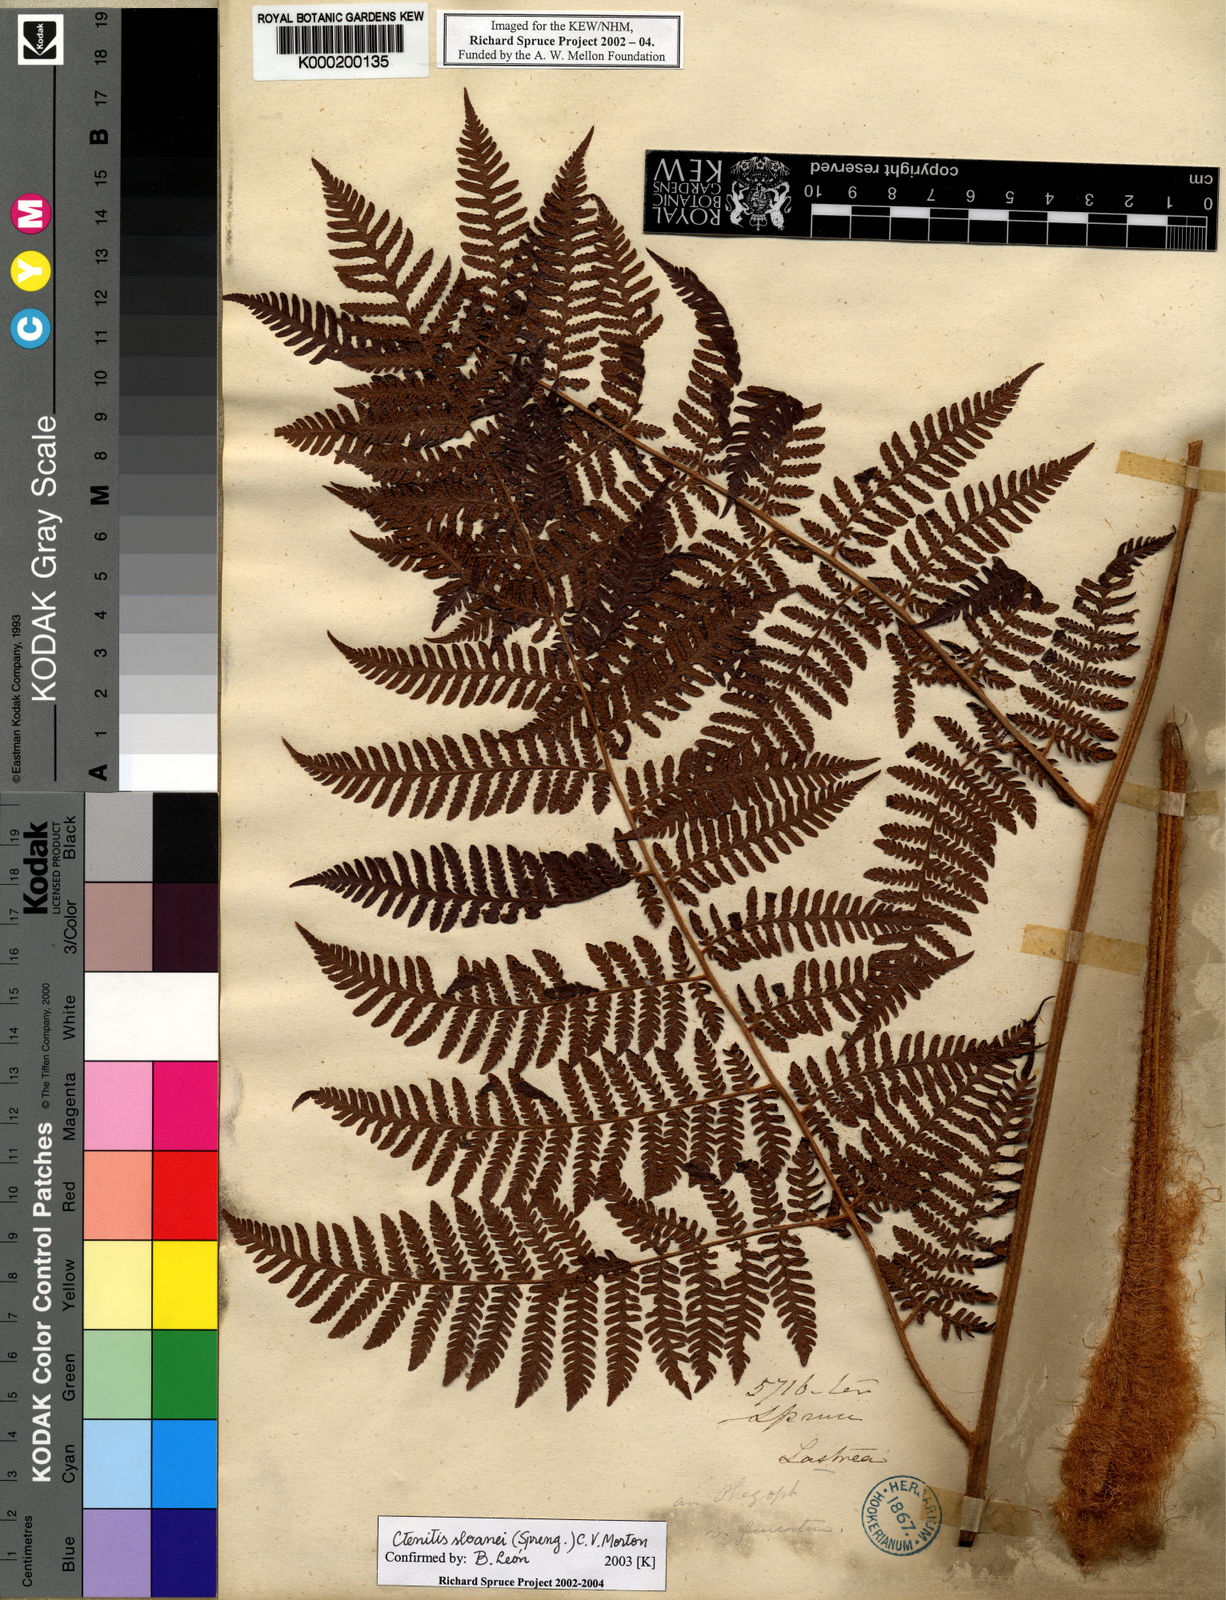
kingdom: Plantae
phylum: Tracheophyta
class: Polypodiopsida
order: Polypodiales
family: Dryopteridaceae
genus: Ctenitis
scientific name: Ctenitis sloanei
